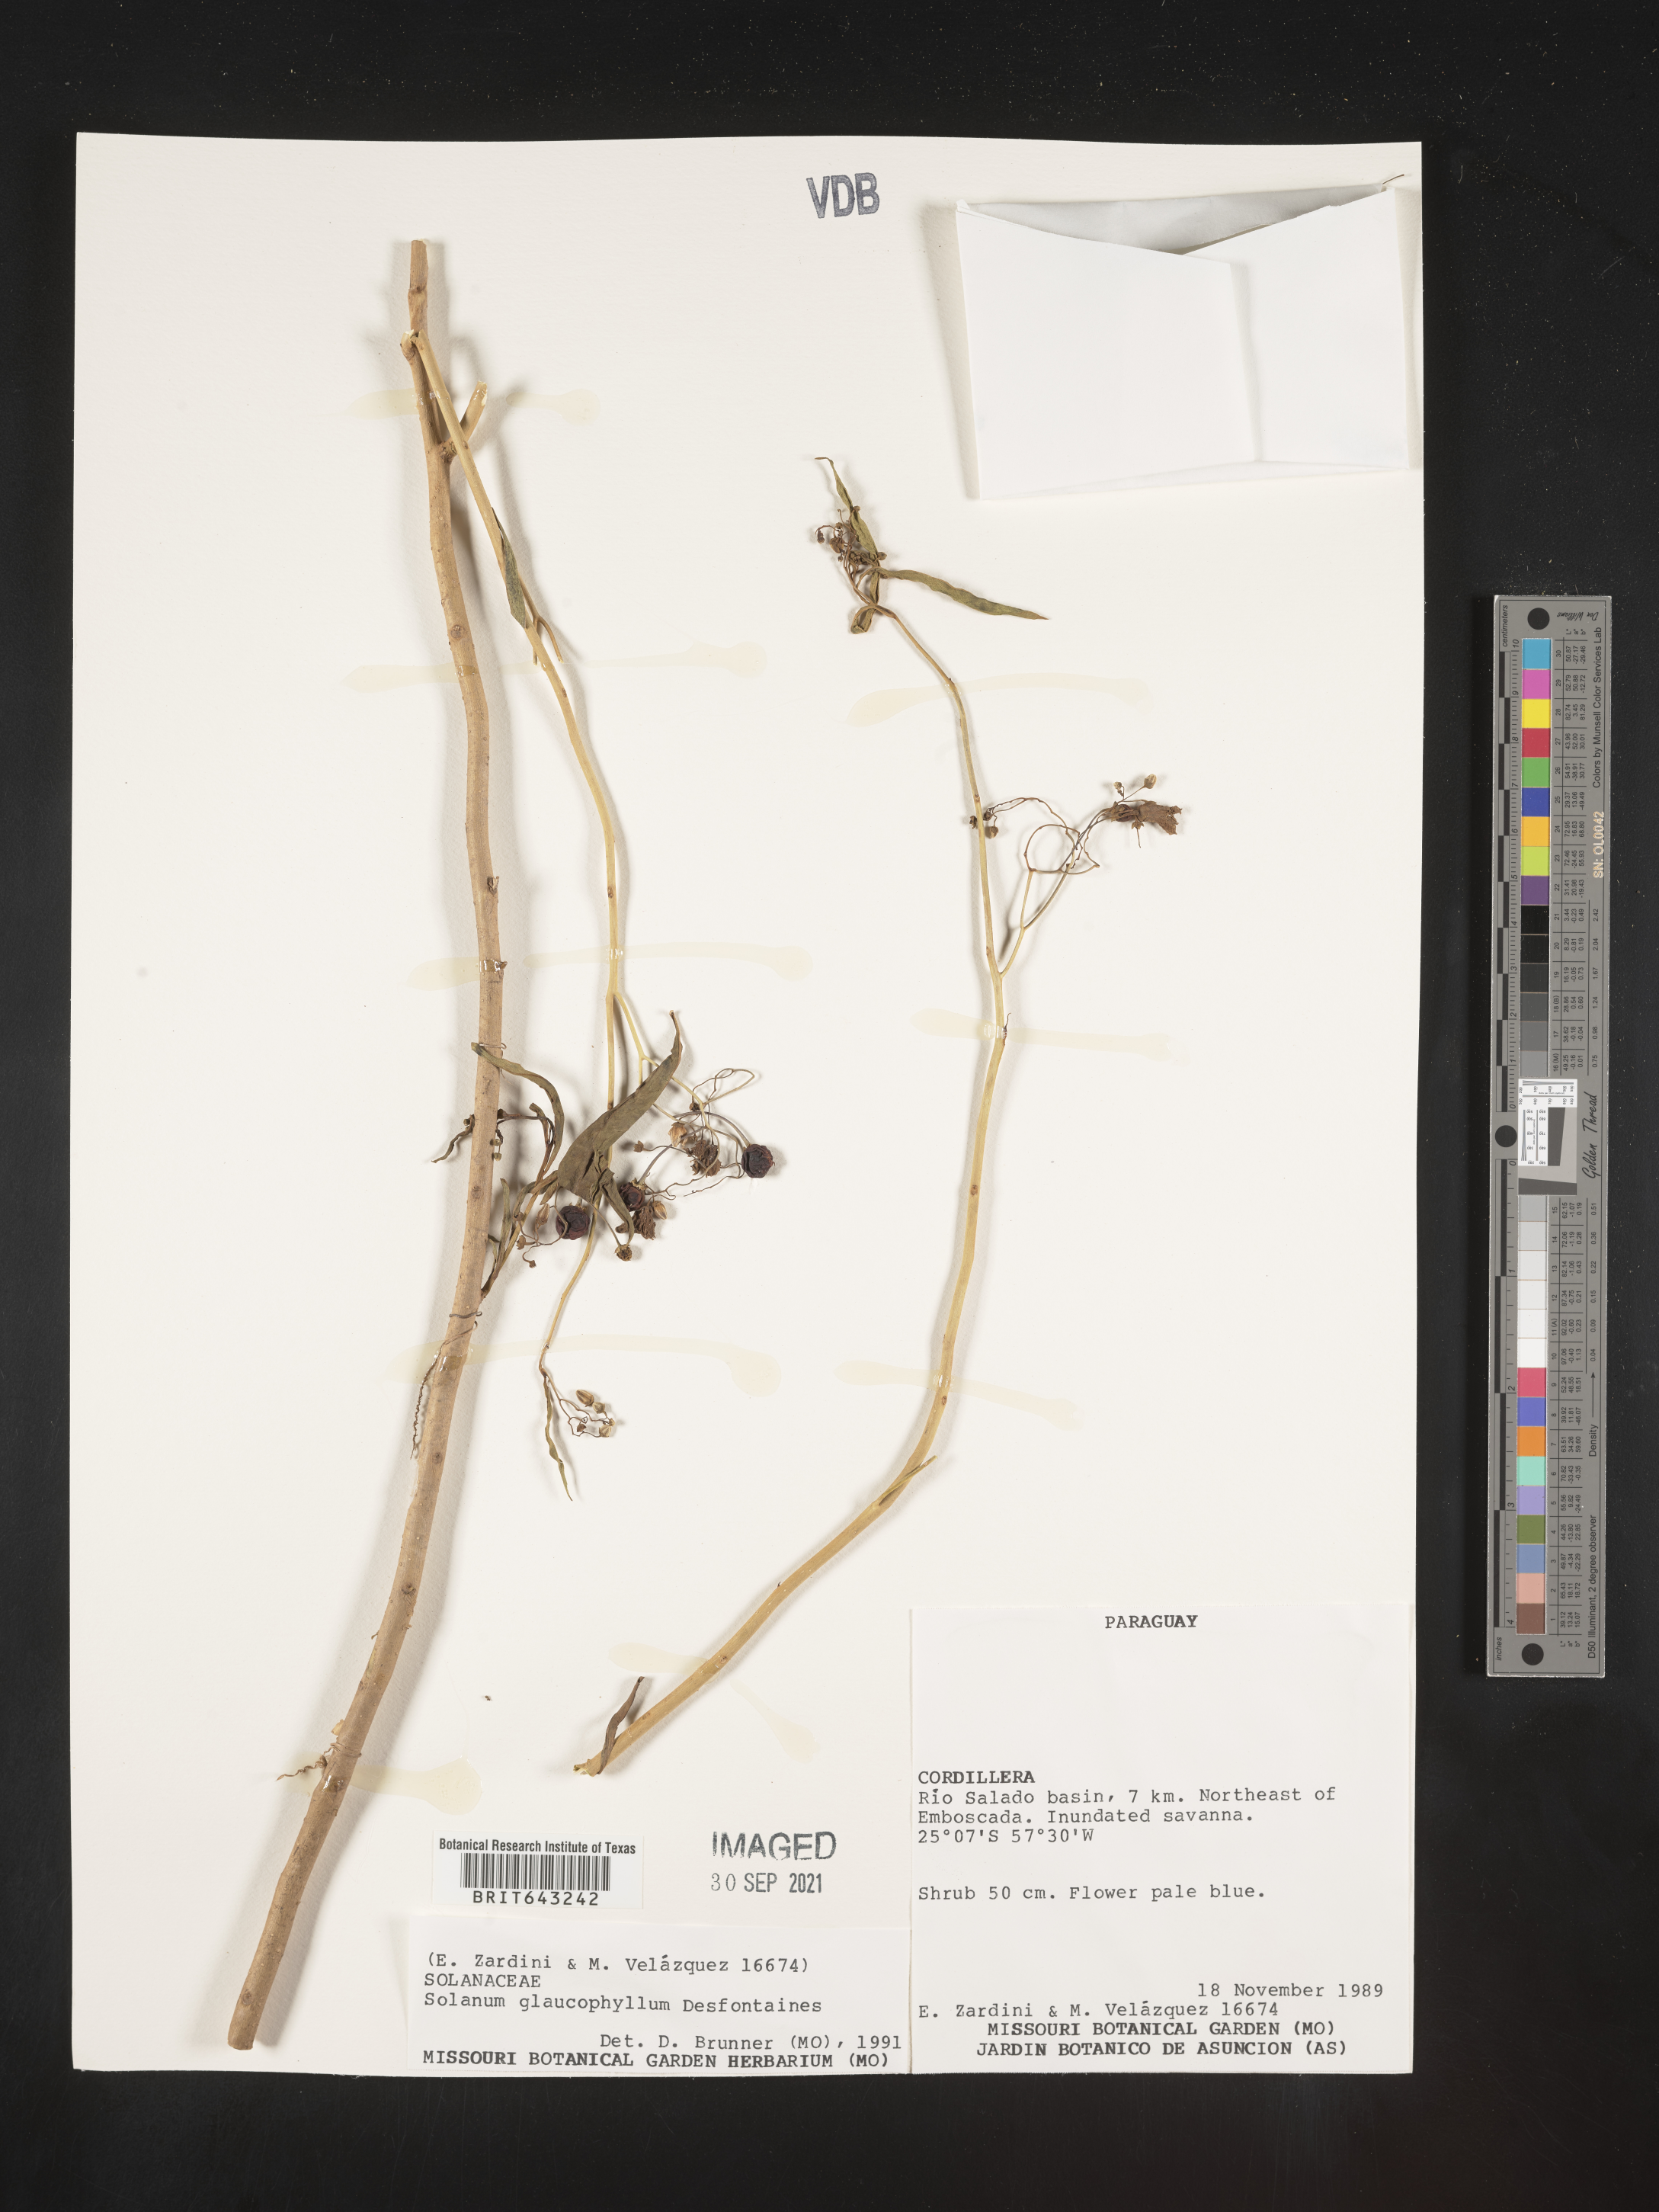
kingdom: Plantae
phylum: Tracheophyta
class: Magnoliopsida
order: Solanales
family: Solanaceae
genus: Solanum
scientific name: Solanum
